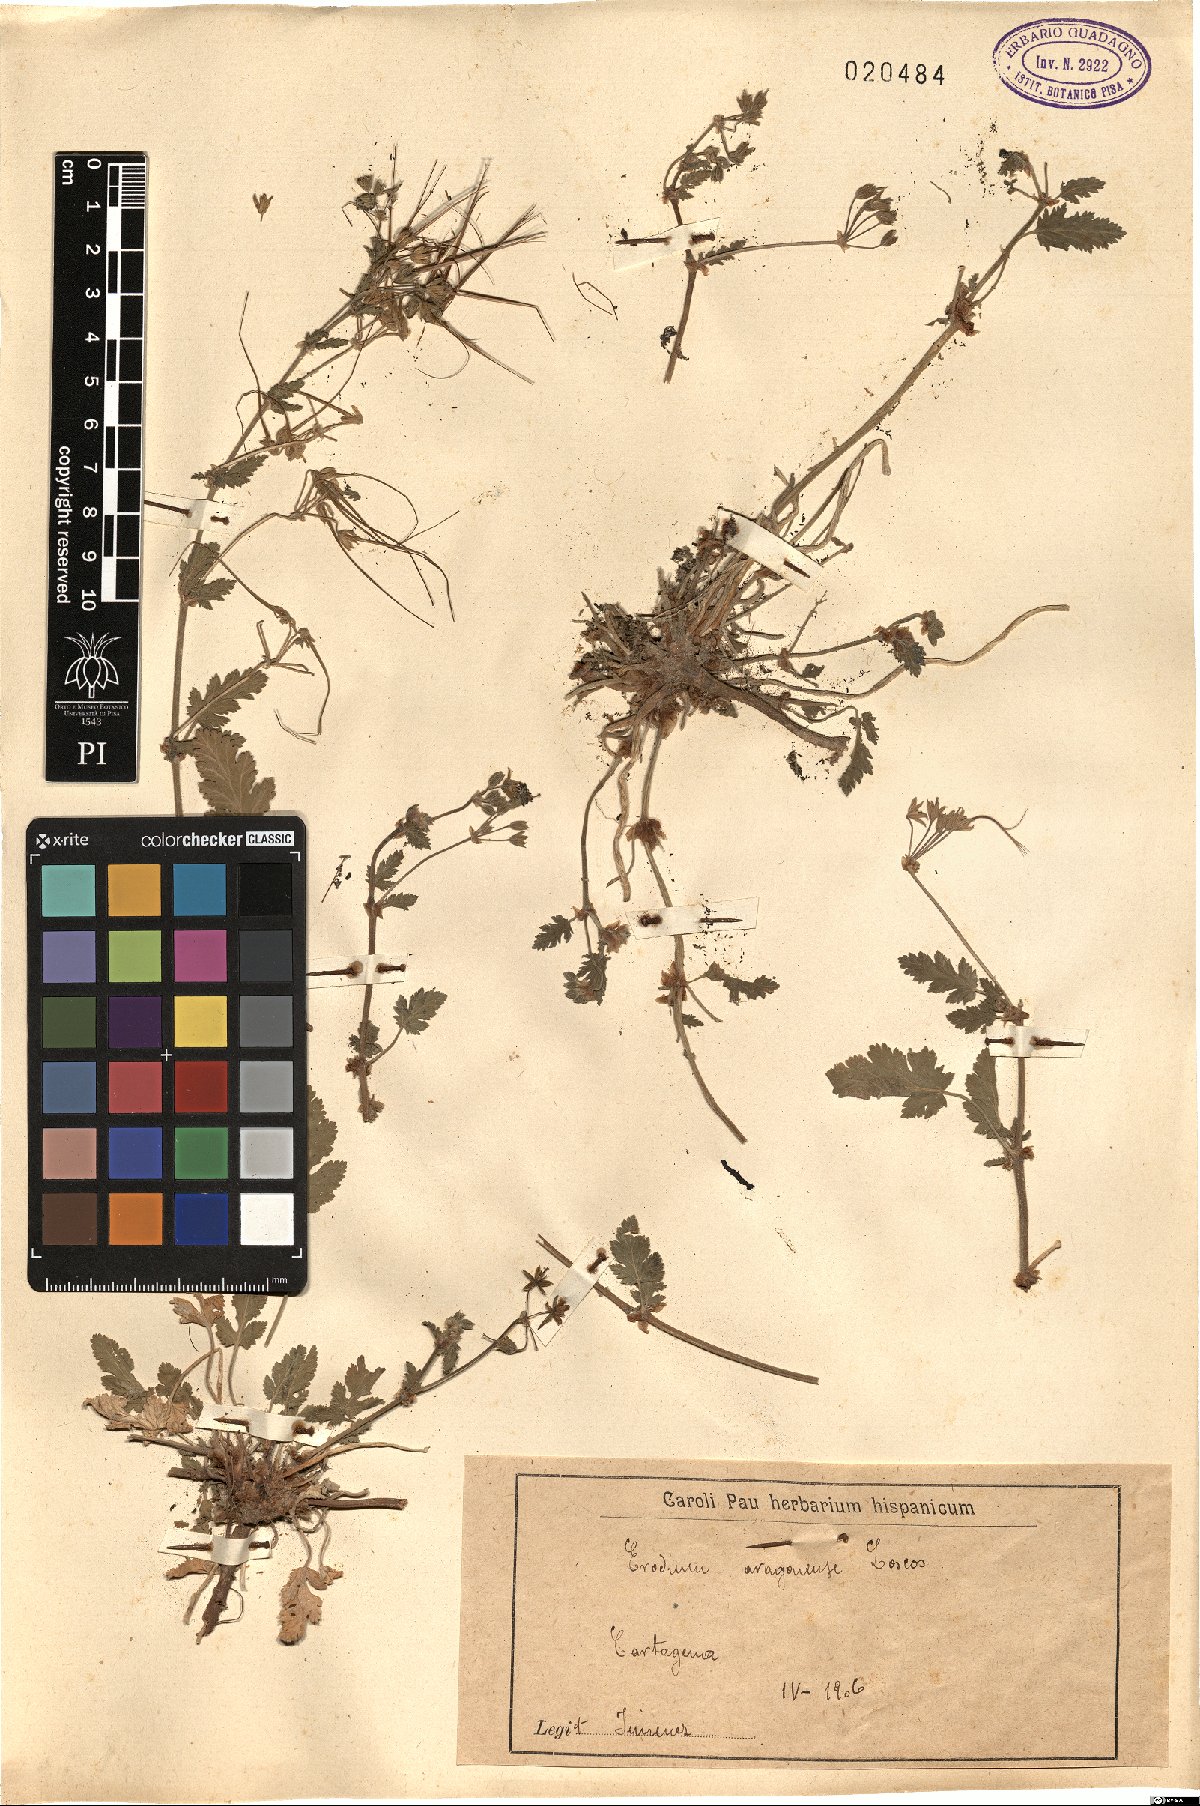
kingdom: Plantae
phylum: Tracheophyta
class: Magnoliopsida
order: Geraniales
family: Geraniaceae
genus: Erodium
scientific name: Erodium neuradifolium
